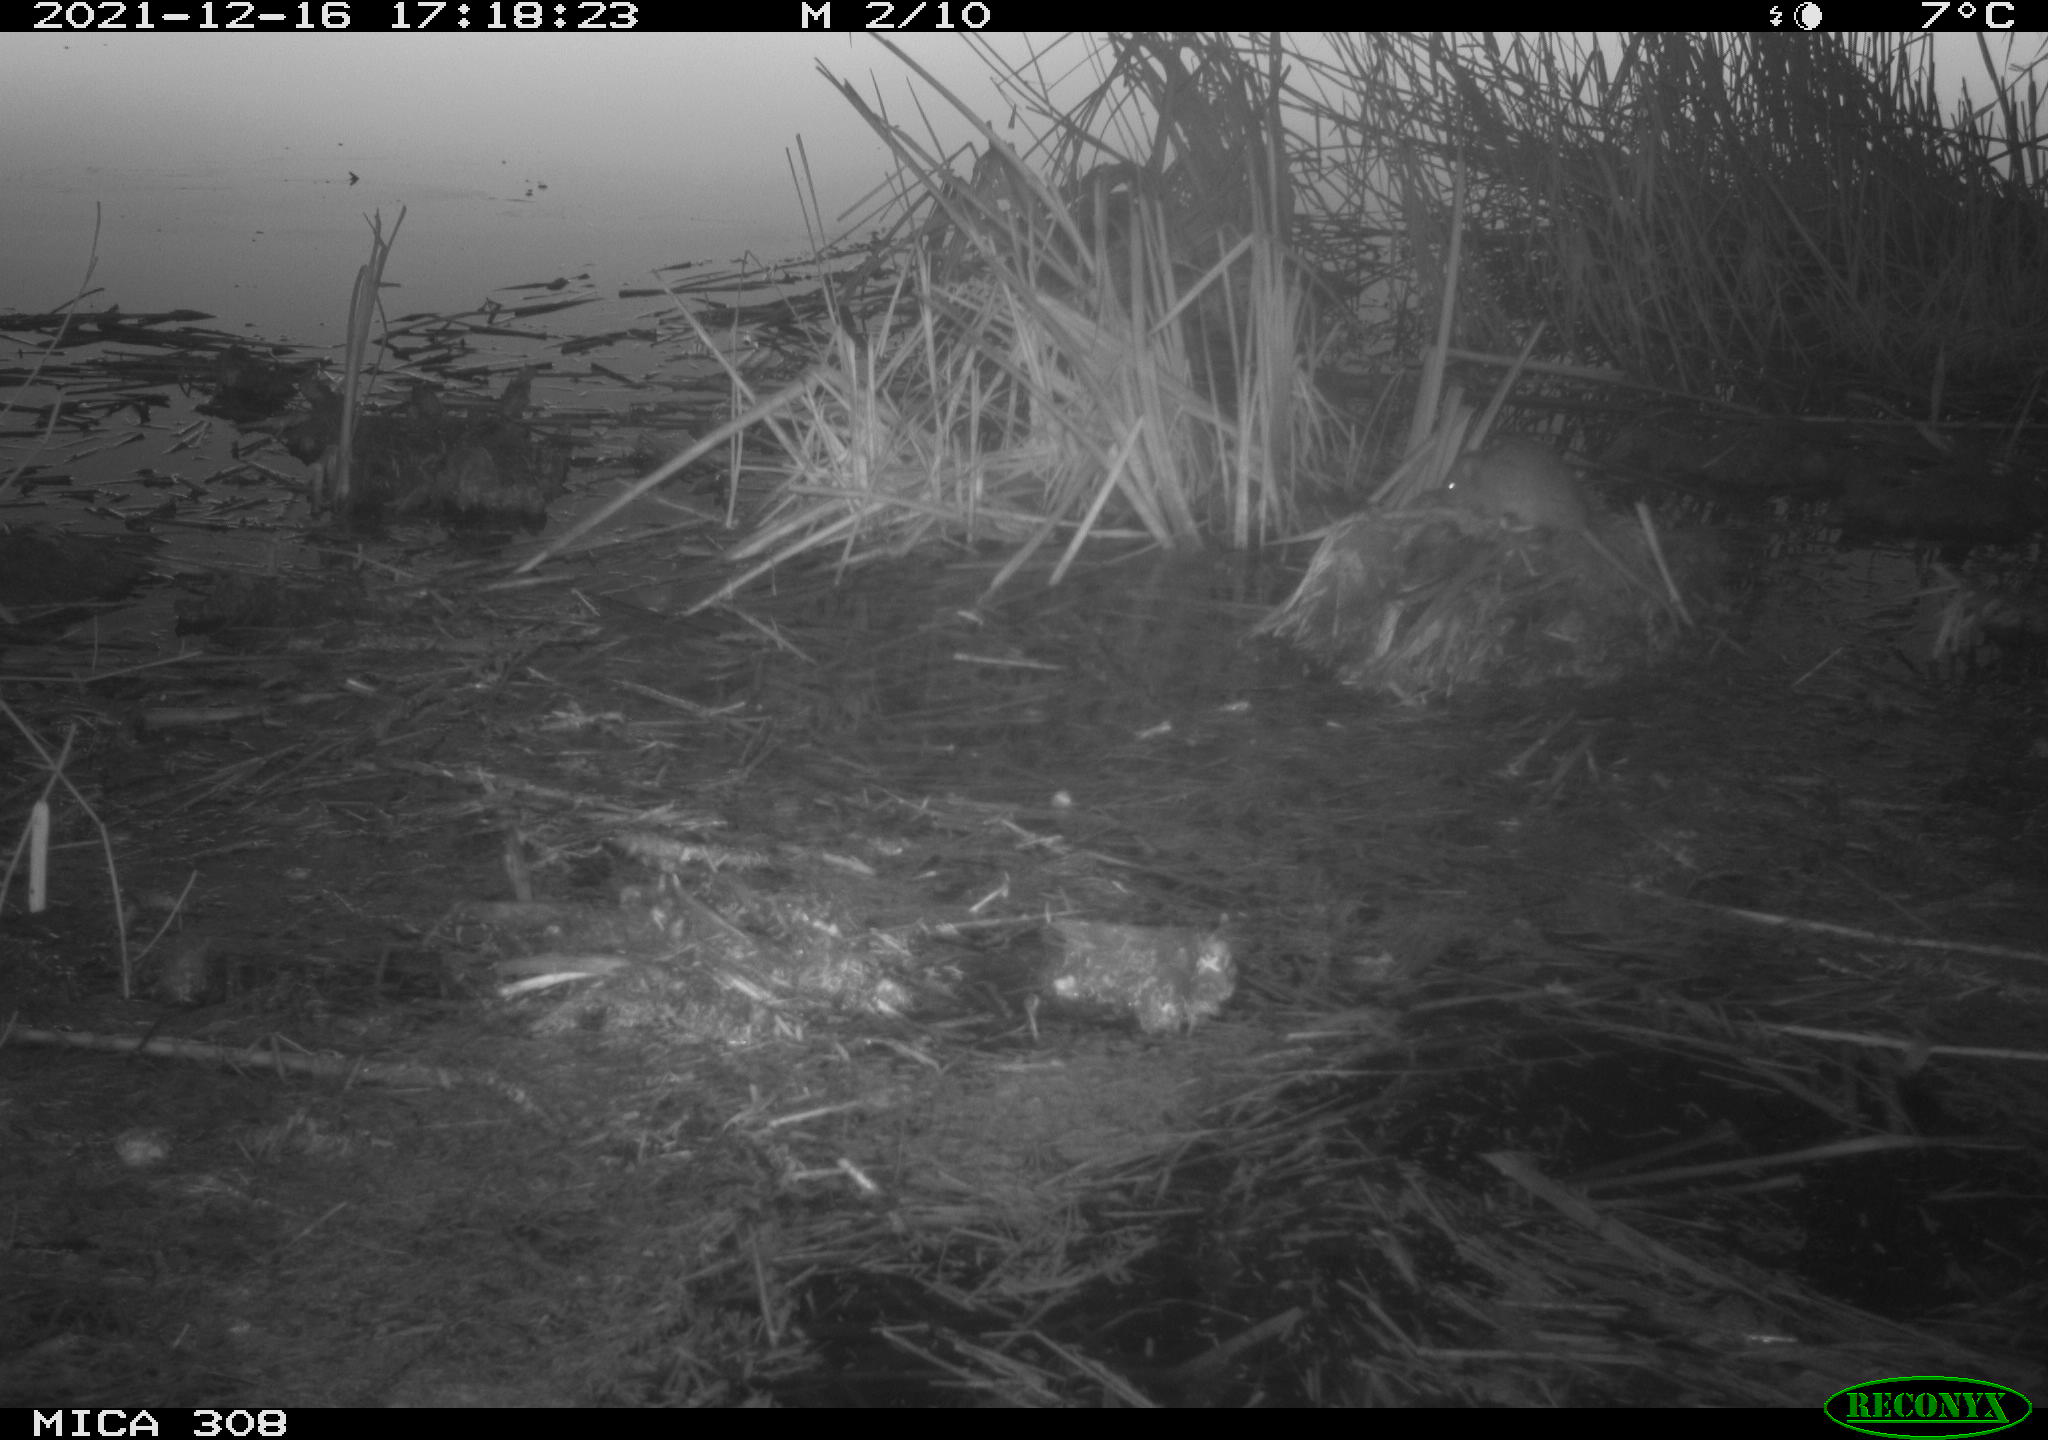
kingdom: Animalia
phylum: Chordata
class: Mammalia
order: Rodentia
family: Muridae
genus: Rattus
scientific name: Rattus norvegicus
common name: Brown rat
